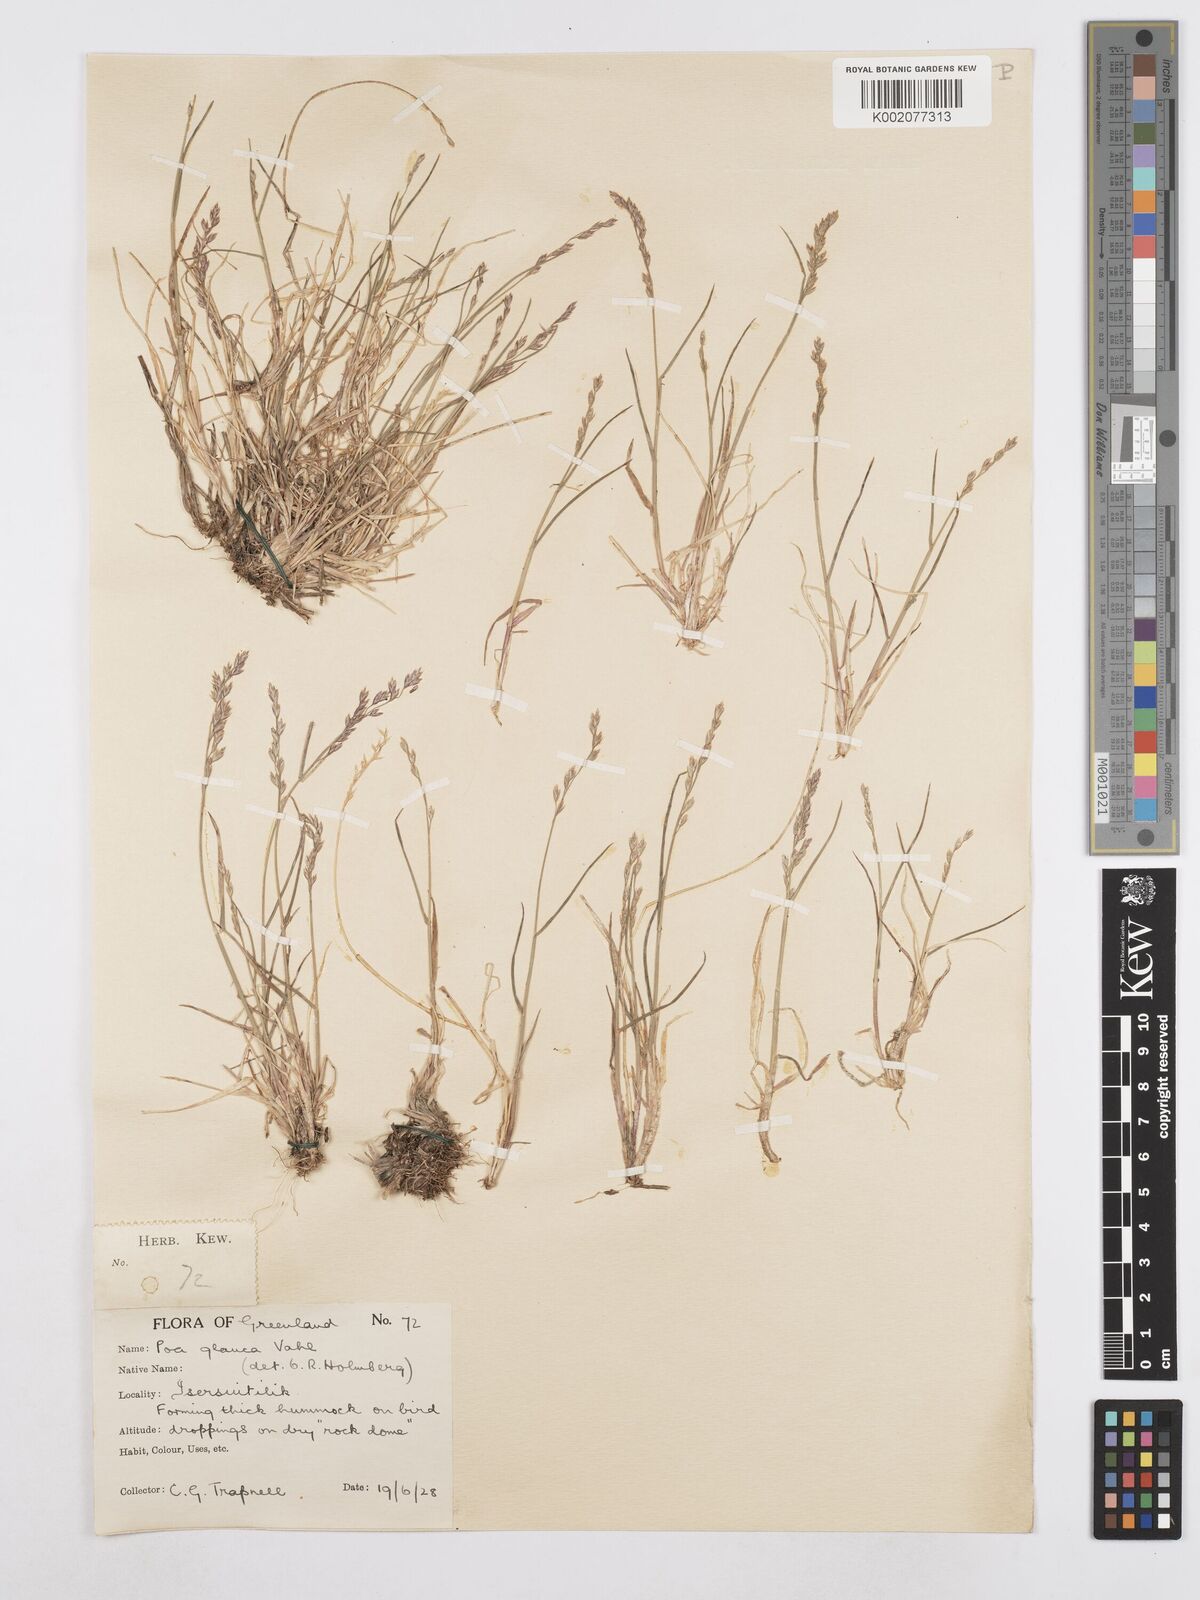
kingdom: Plantae
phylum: Tracheophyta
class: Liliopsida
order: Poales
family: Poaceae
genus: Poa
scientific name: Poa glauca
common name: Glaucous bluegrass
